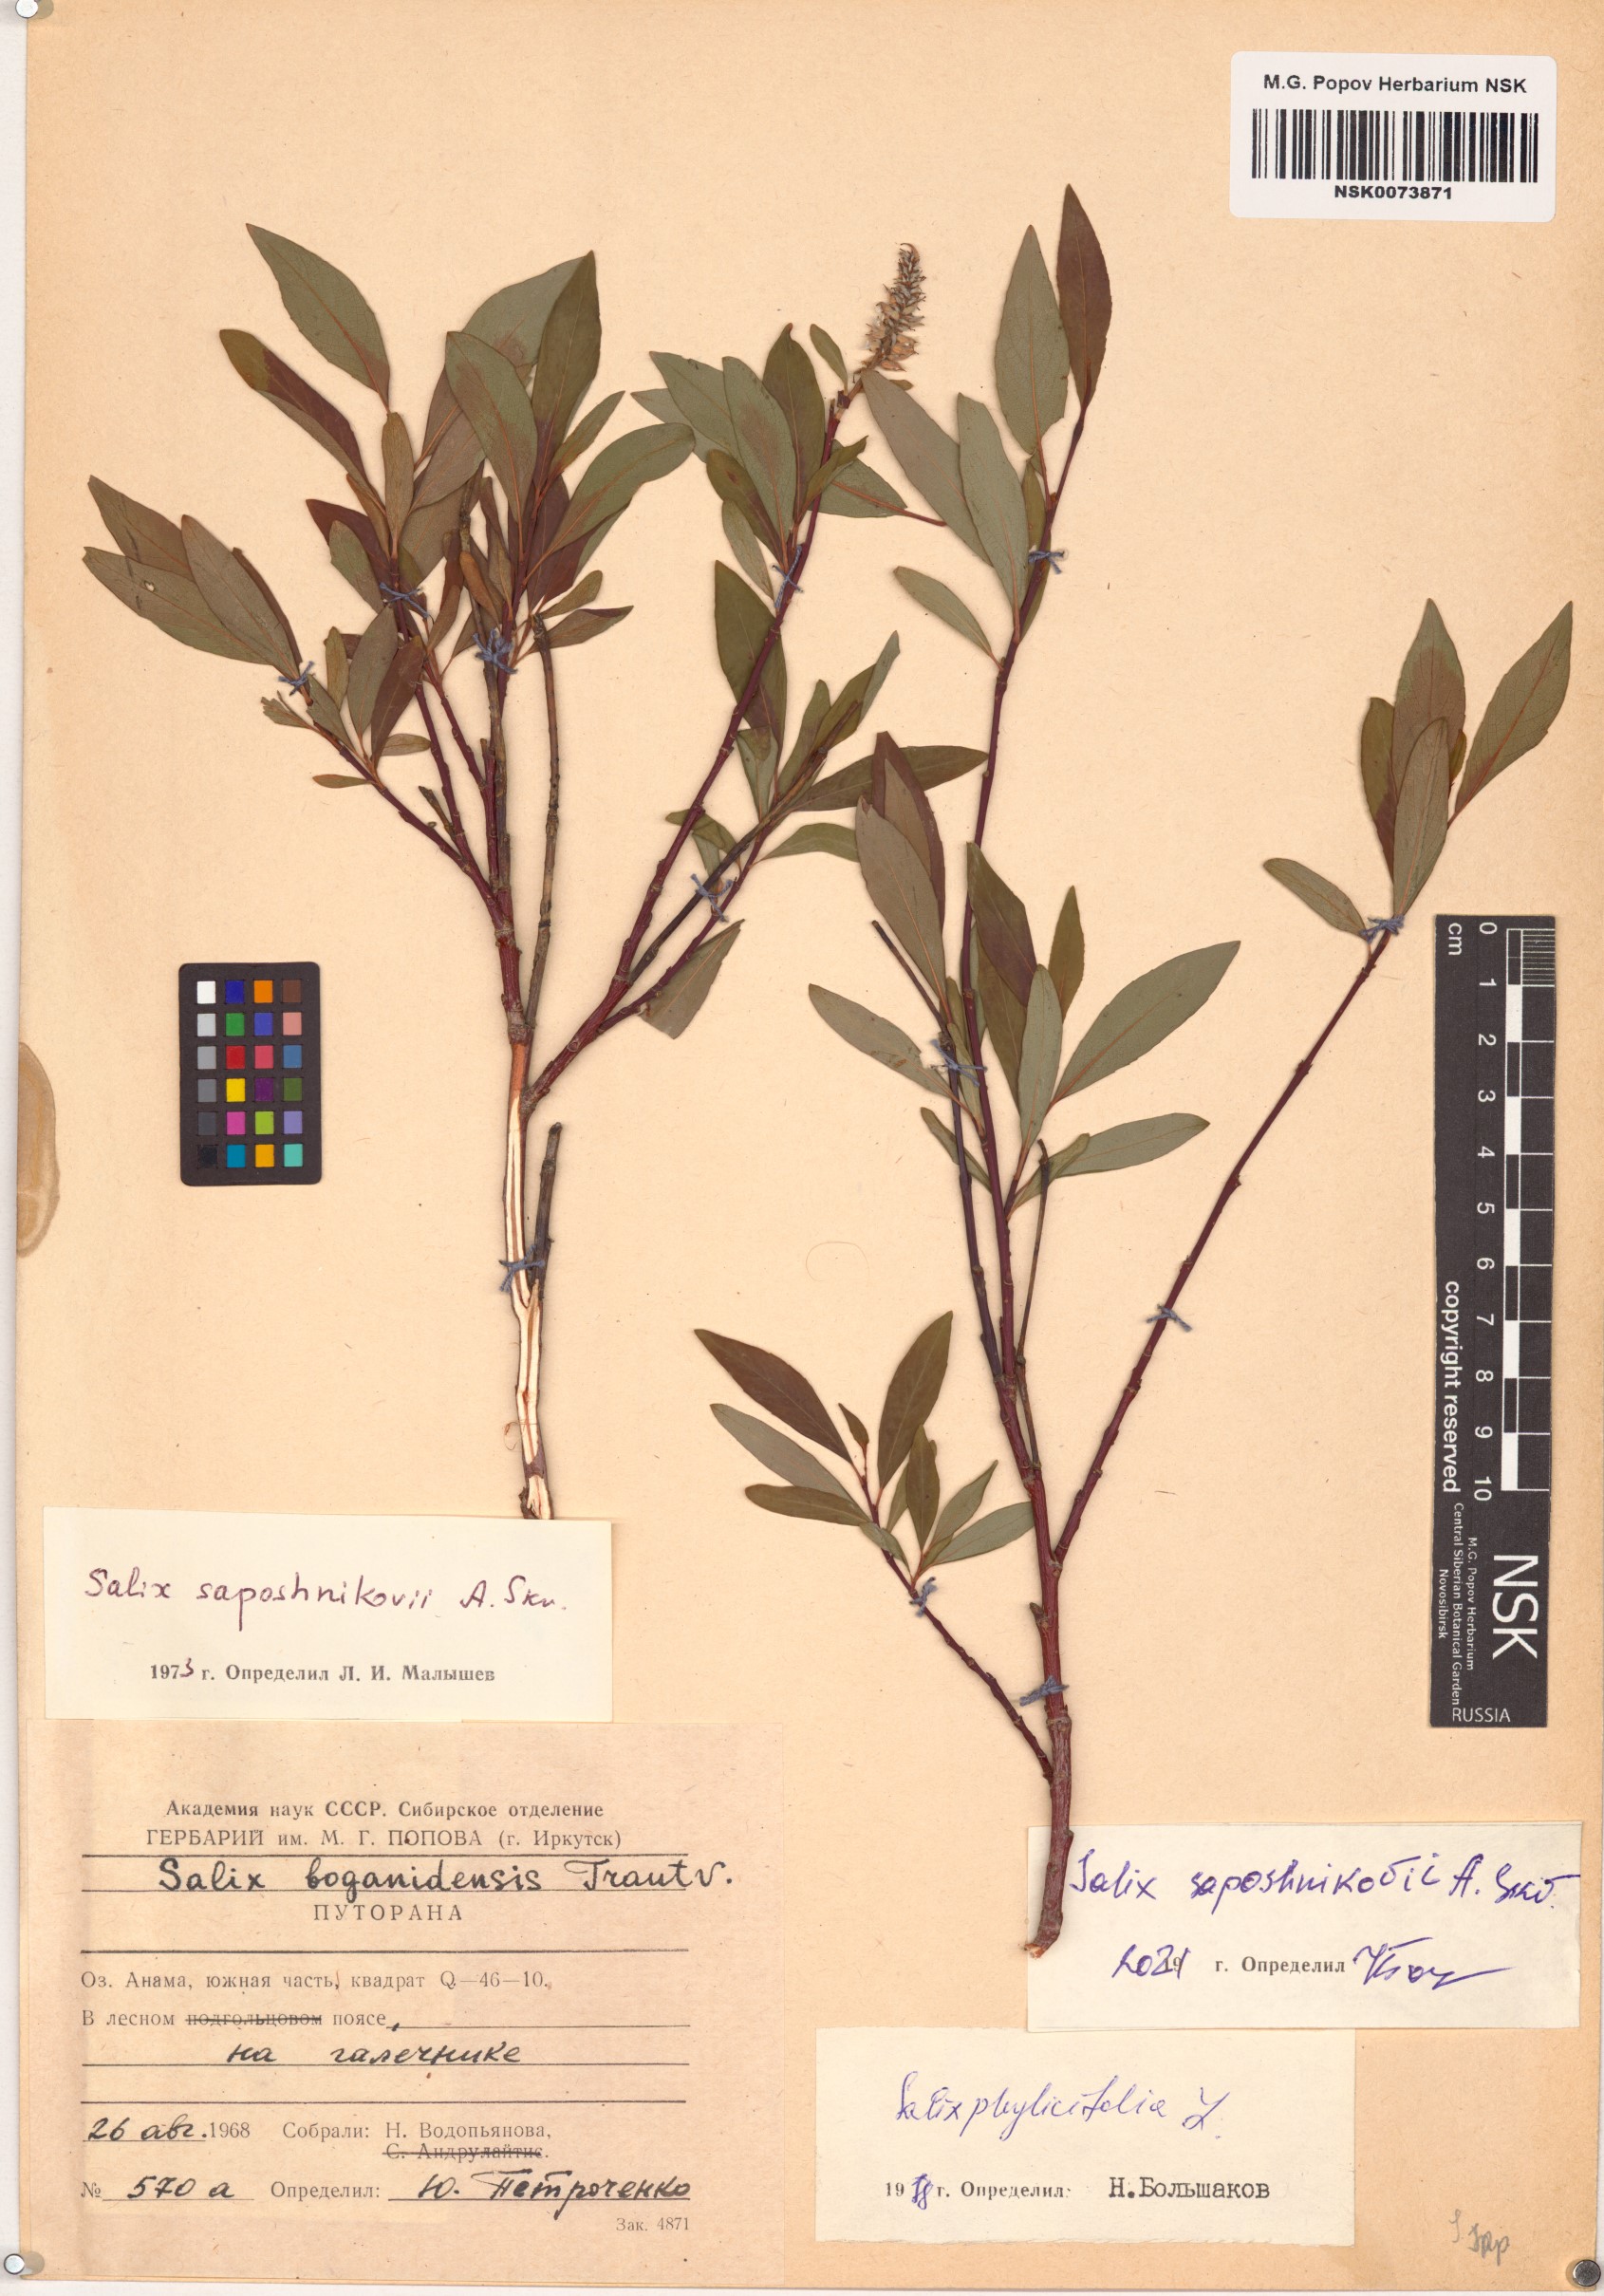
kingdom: Plantae
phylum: Tracheophyta
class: Magnoliopsida
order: Malpighiales
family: Salicaceae
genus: Salix
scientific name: Salix saposhnikovii
